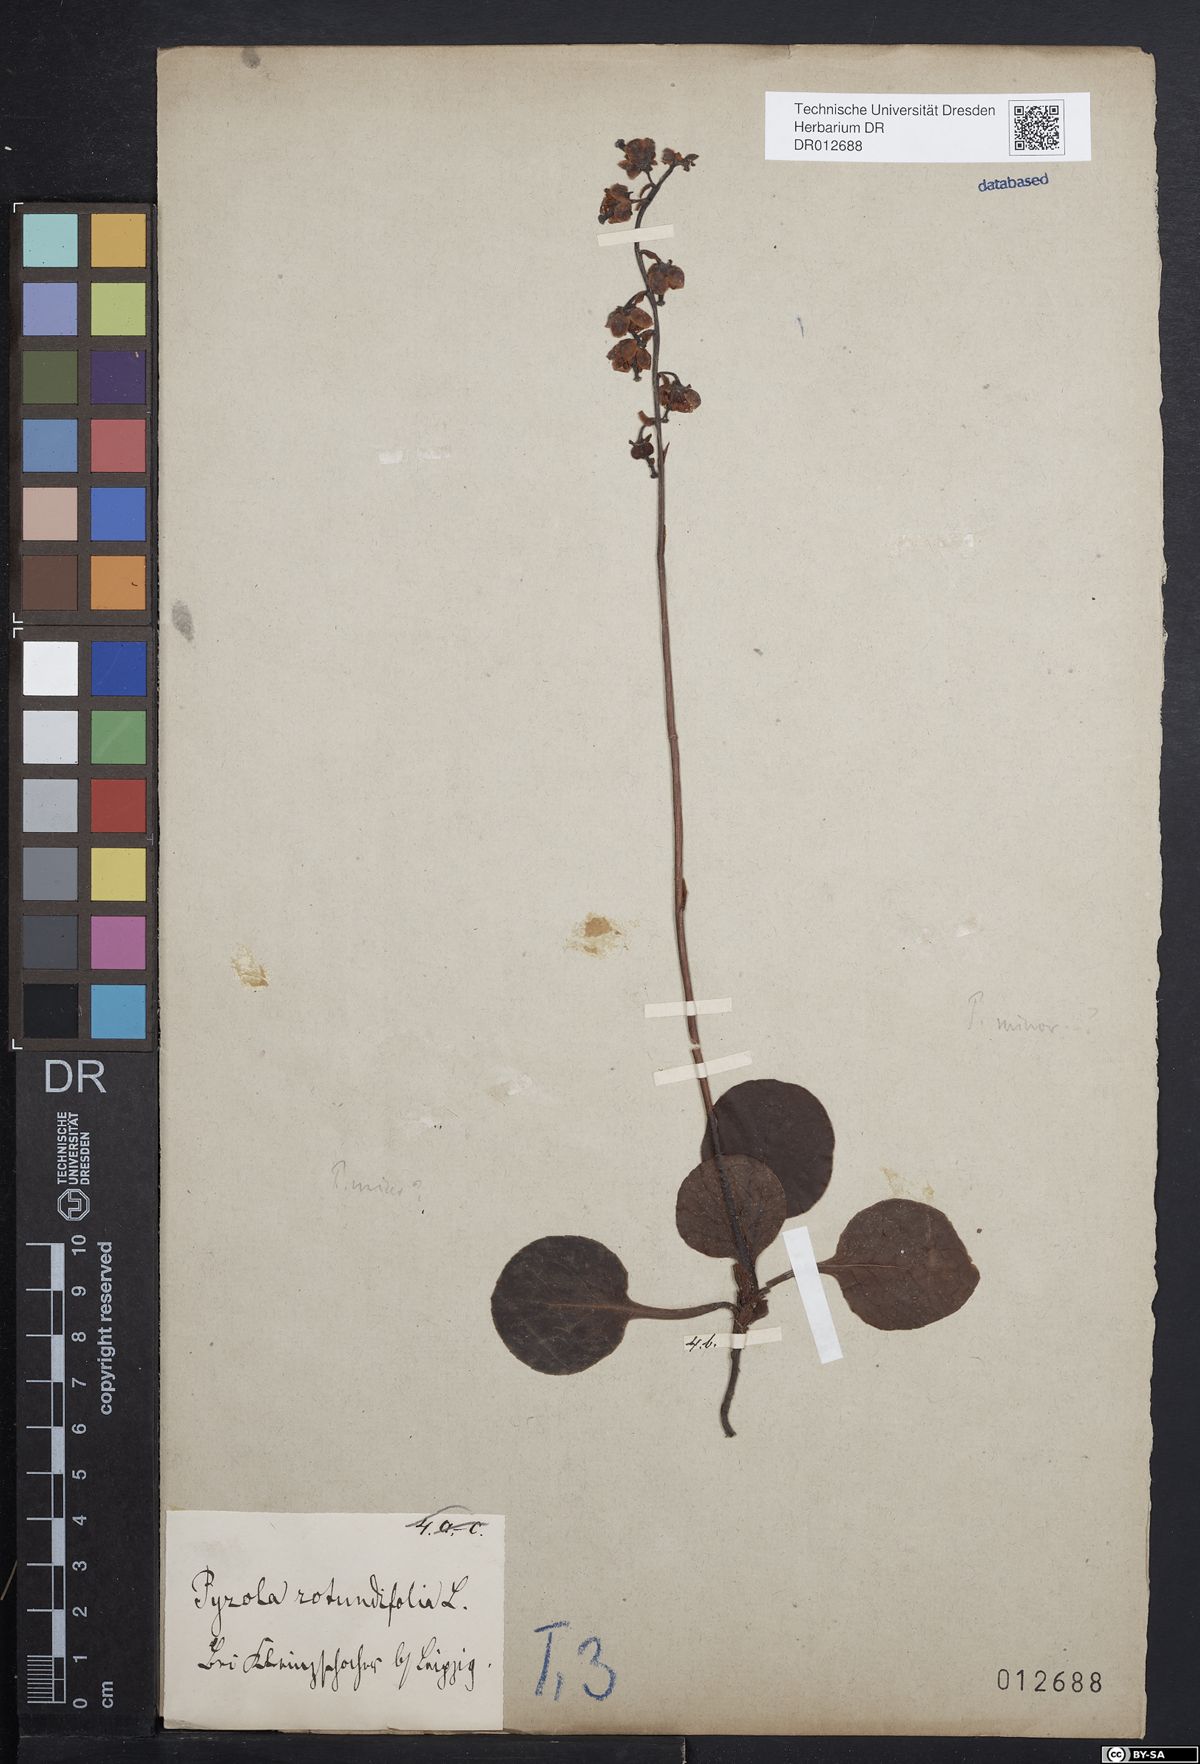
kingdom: Plantae
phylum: Tracheophyta
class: Magnoliopsida
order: Ericales
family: Ericaceae
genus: Pyrola
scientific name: Pyrola rotundifolia
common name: Round-leaved wintergreen
